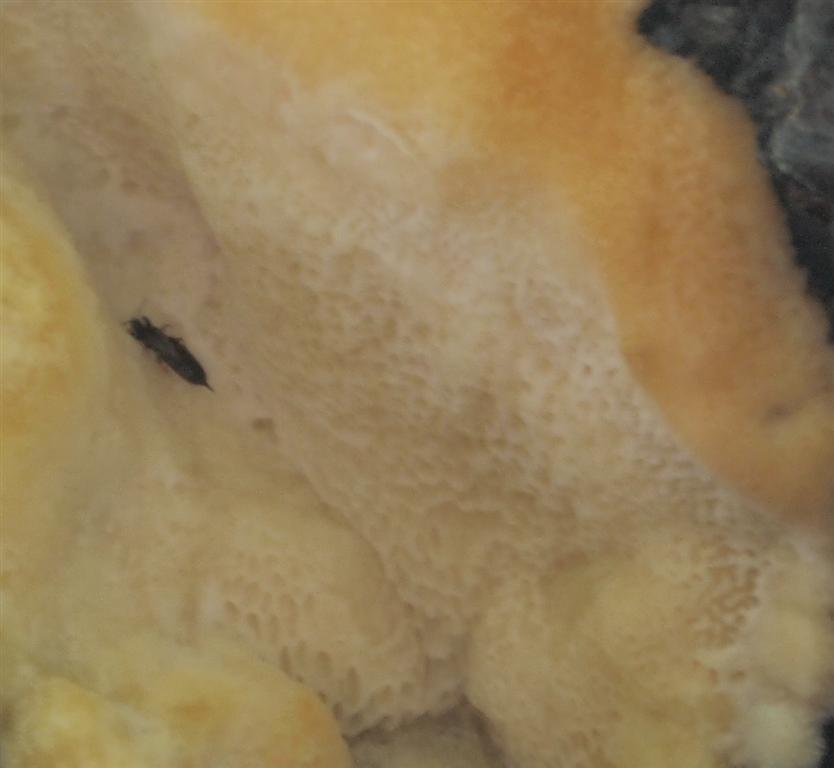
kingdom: Fungi
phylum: Basidiomycota
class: Agaricomycetes
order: Polyporales
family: Meruliaceae
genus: Pappia
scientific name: Pappia fissilis
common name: sej fedtporesvamp
